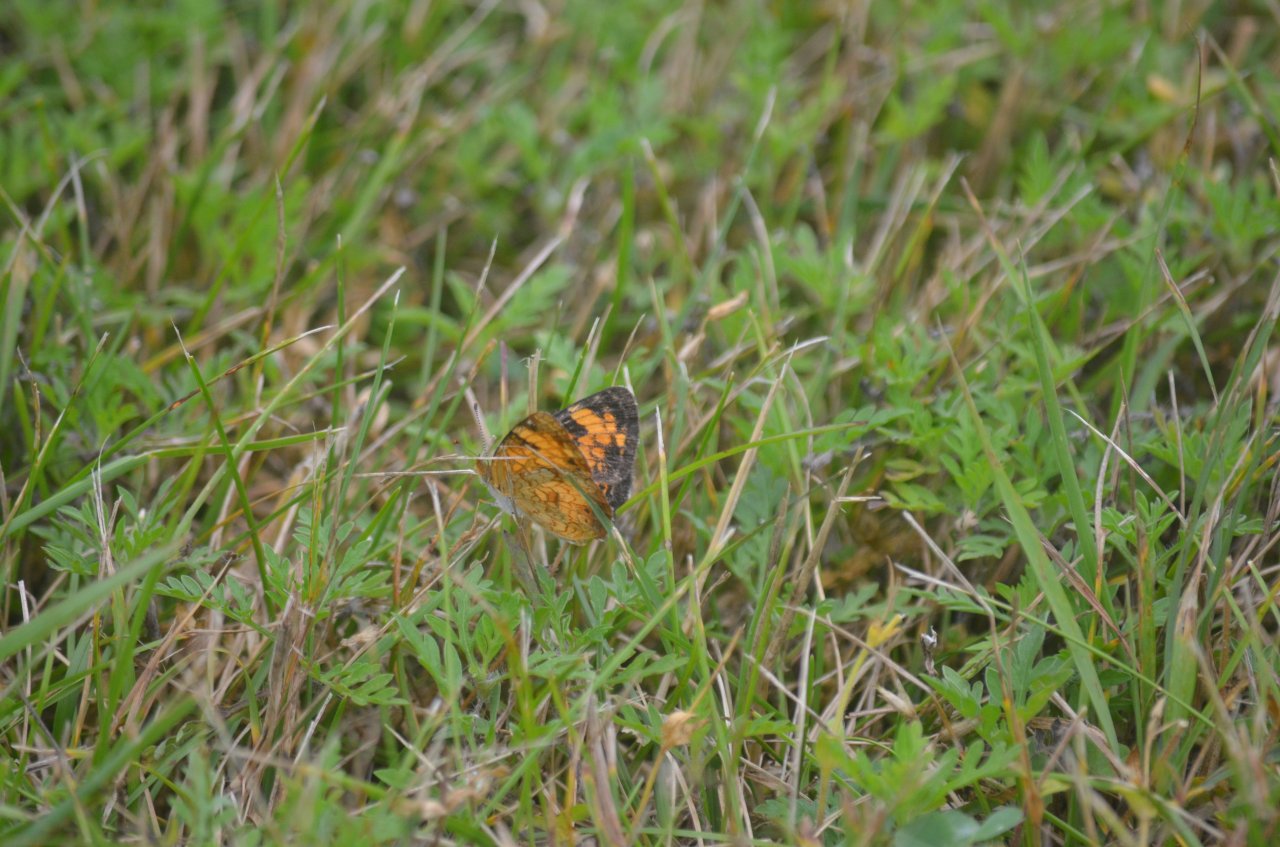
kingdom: Animalia
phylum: Arthropoda
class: Insecta
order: Lepidoptera
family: Nymphalidae
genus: Phyciodes
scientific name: Phyciodes tharos
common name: Northern Crescent
